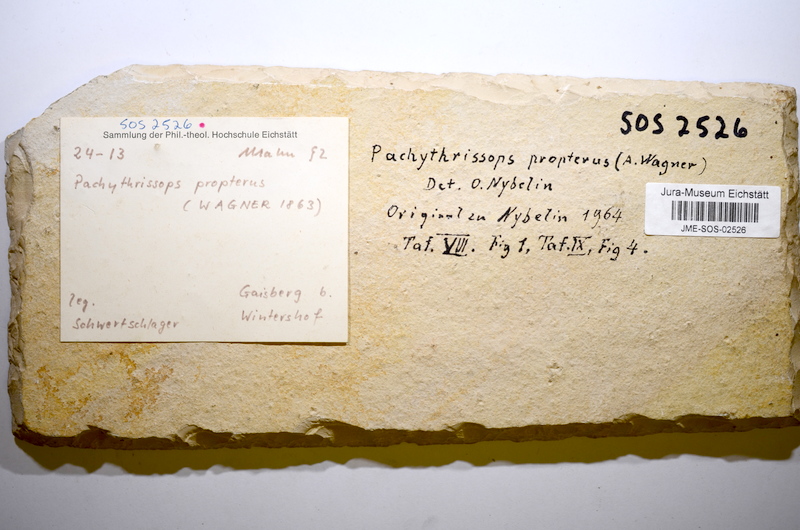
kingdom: Animalia
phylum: Chordata
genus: Pachythrissops
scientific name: Pachythrissops propterus
